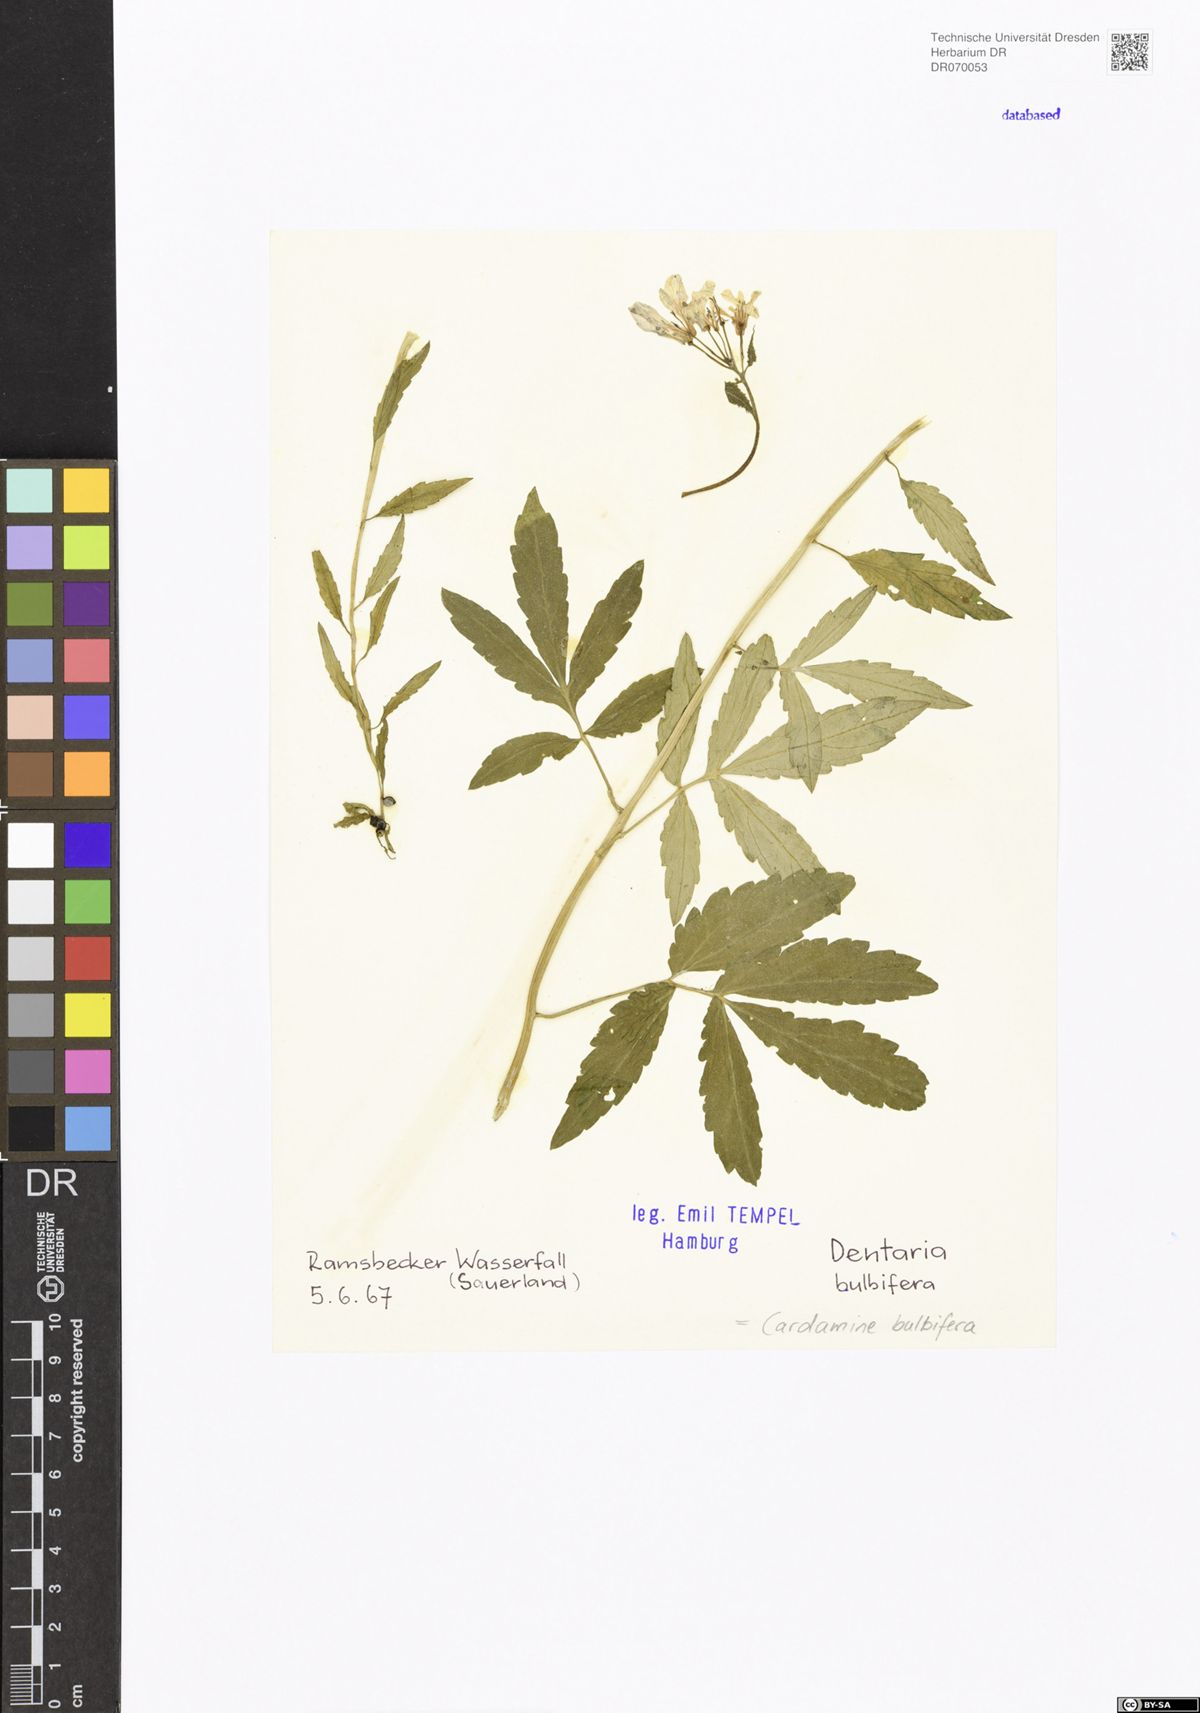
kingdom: Plantae
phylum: Tracheophyta
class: Magnoliopsida
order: Brassicales
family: Brassicaceae
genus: Cardamine
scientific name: Cardamine bulbifera
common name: Coralroot bittercress
